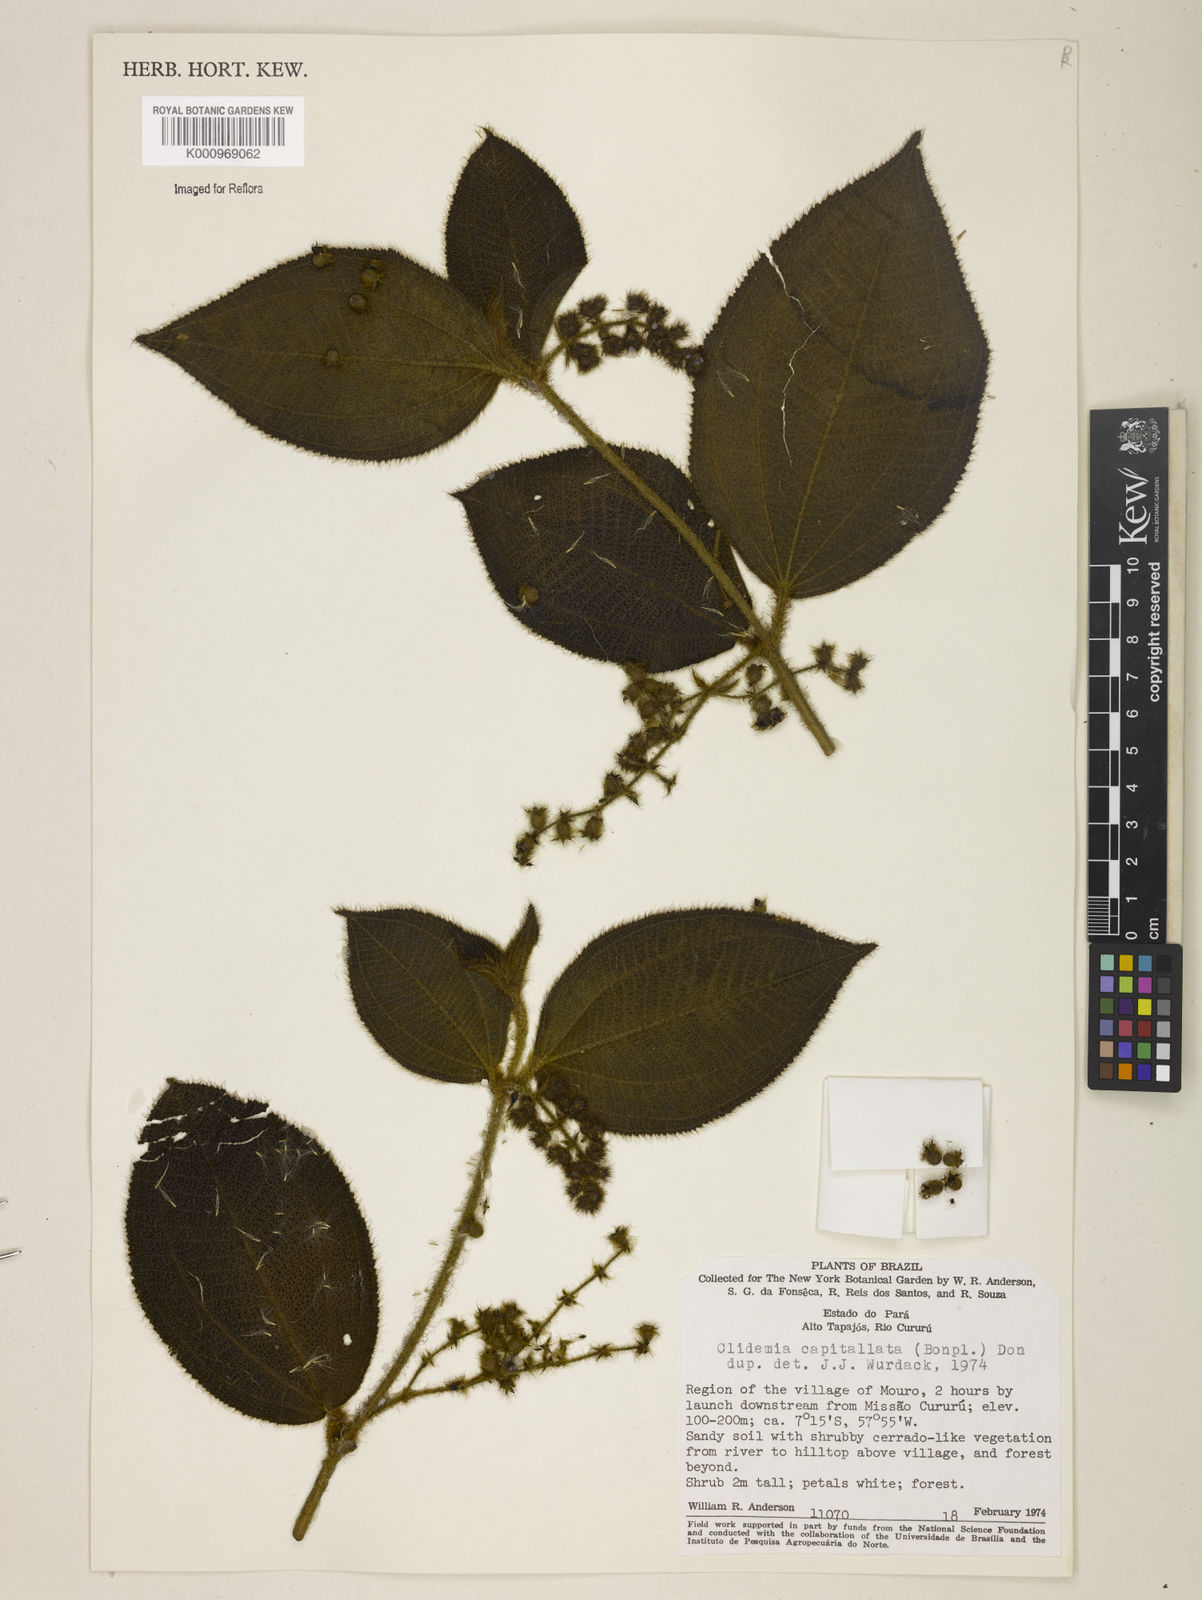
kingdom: Plantae
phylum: Tracheophyta
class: Magnoliopsida
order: Myrtales
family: Melastomataceae
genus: Miconia
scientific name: Miconia dependens
